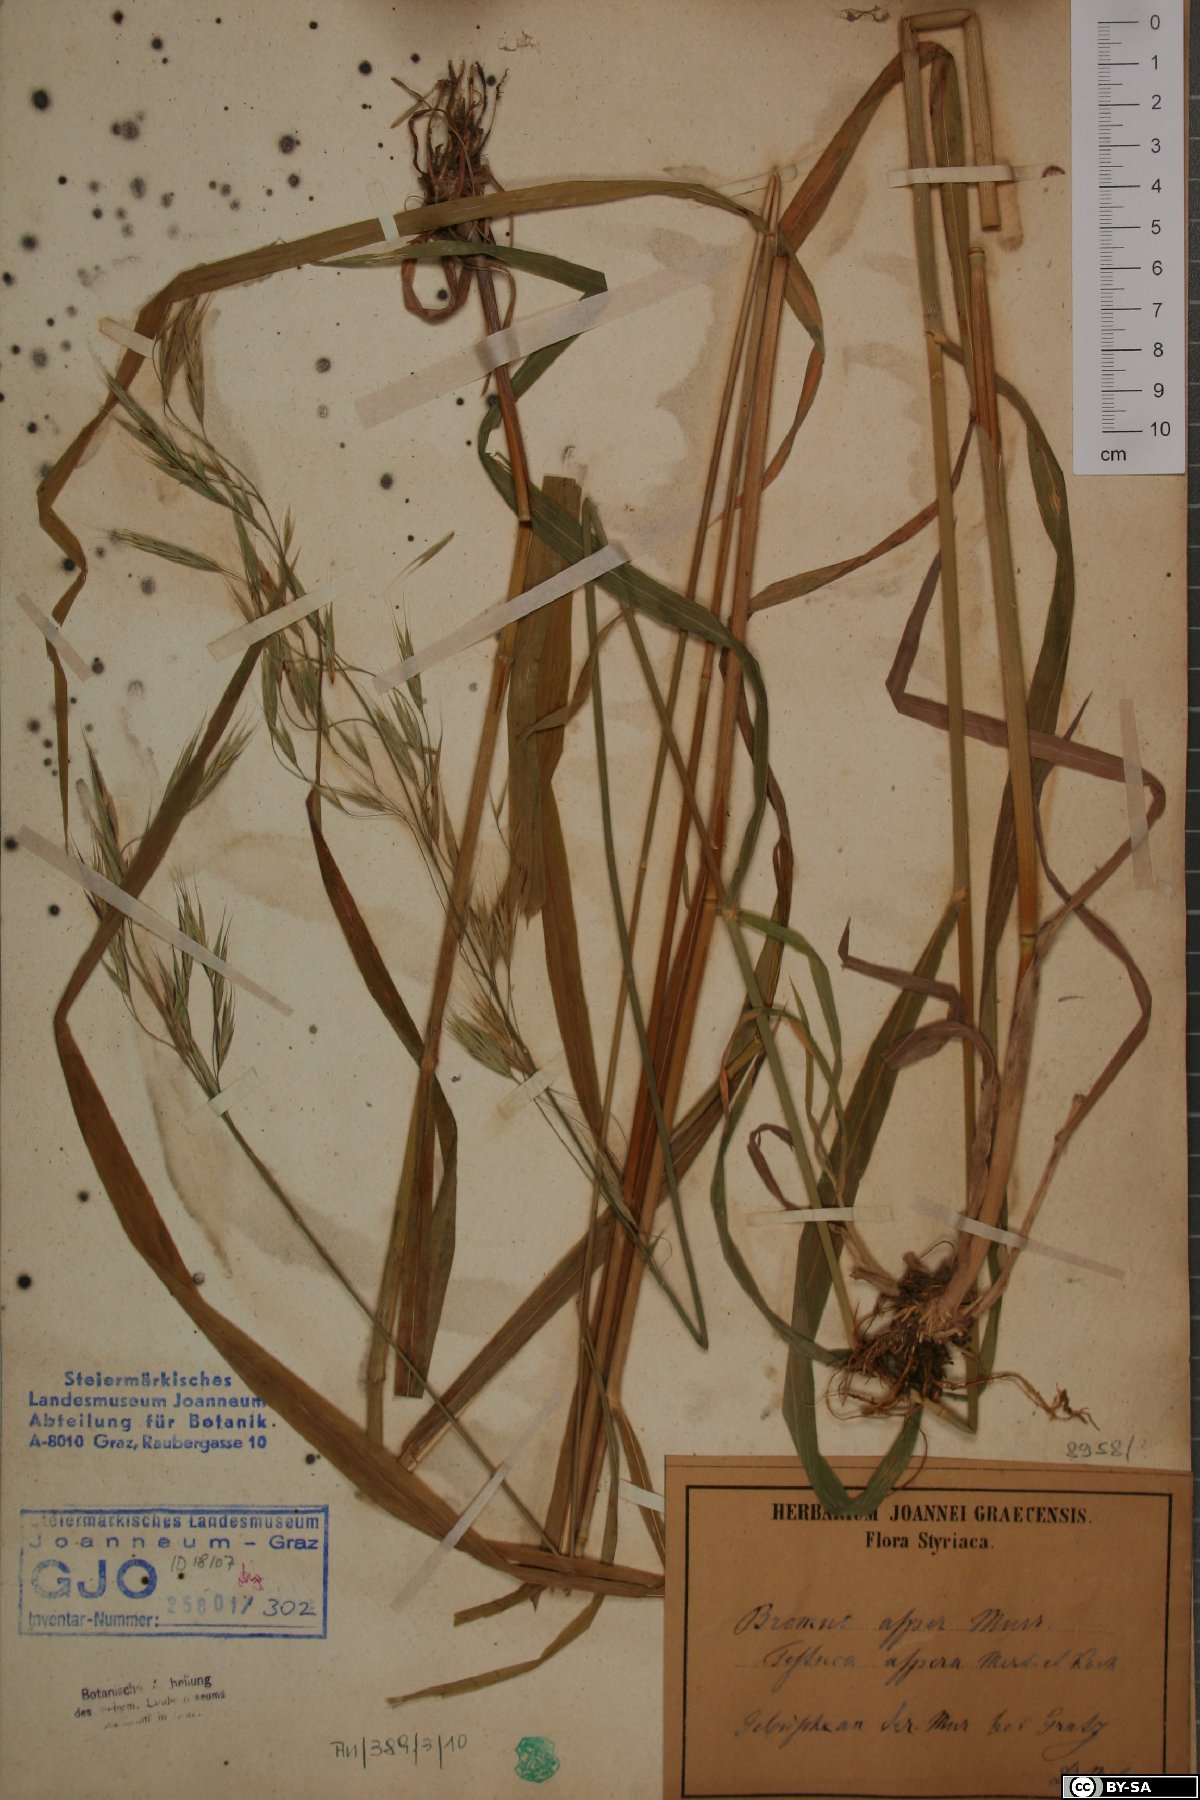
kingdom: Plantae
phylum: Tracheophyta
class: Liliopsida
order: Poales
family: Poaceae
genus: Bromus
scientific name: Bromus ramosus
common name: Hairy brome
